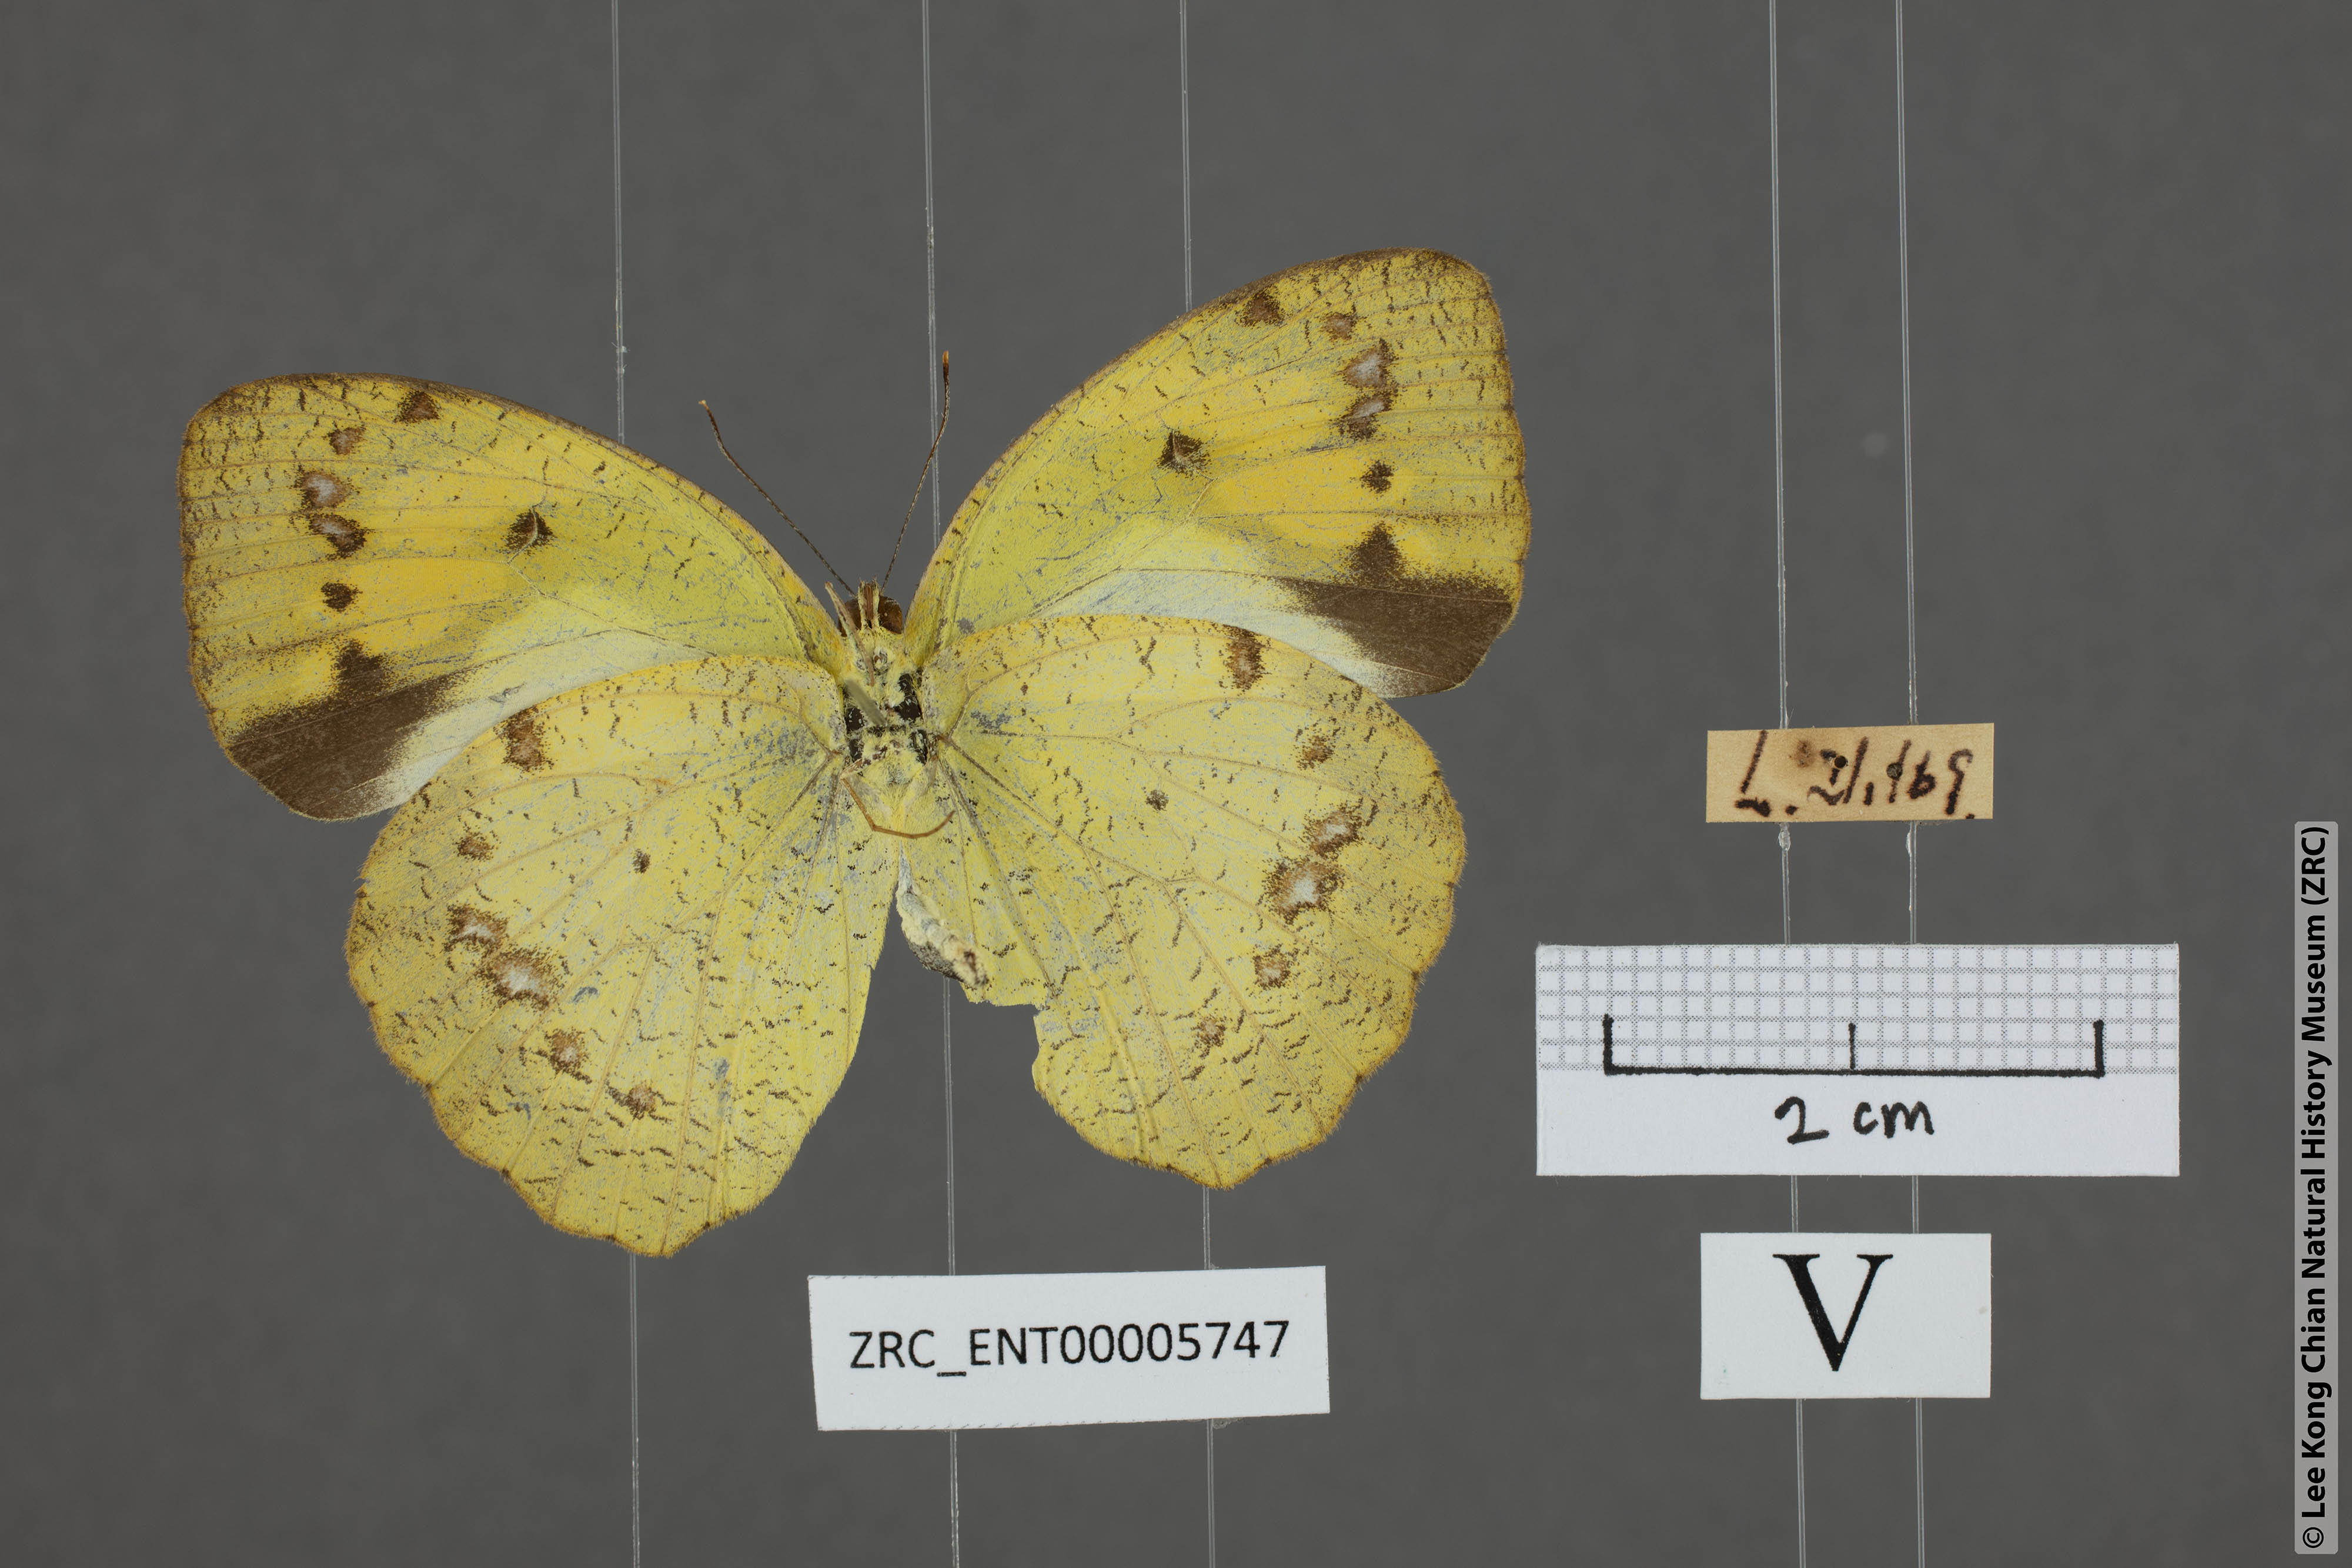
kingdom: Animalia
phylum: Arthropoda
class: Insecta
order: Lepidoptera
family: Pieridae
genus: Ixias
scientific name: Ixias pyrene
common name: Yellow orange tip
